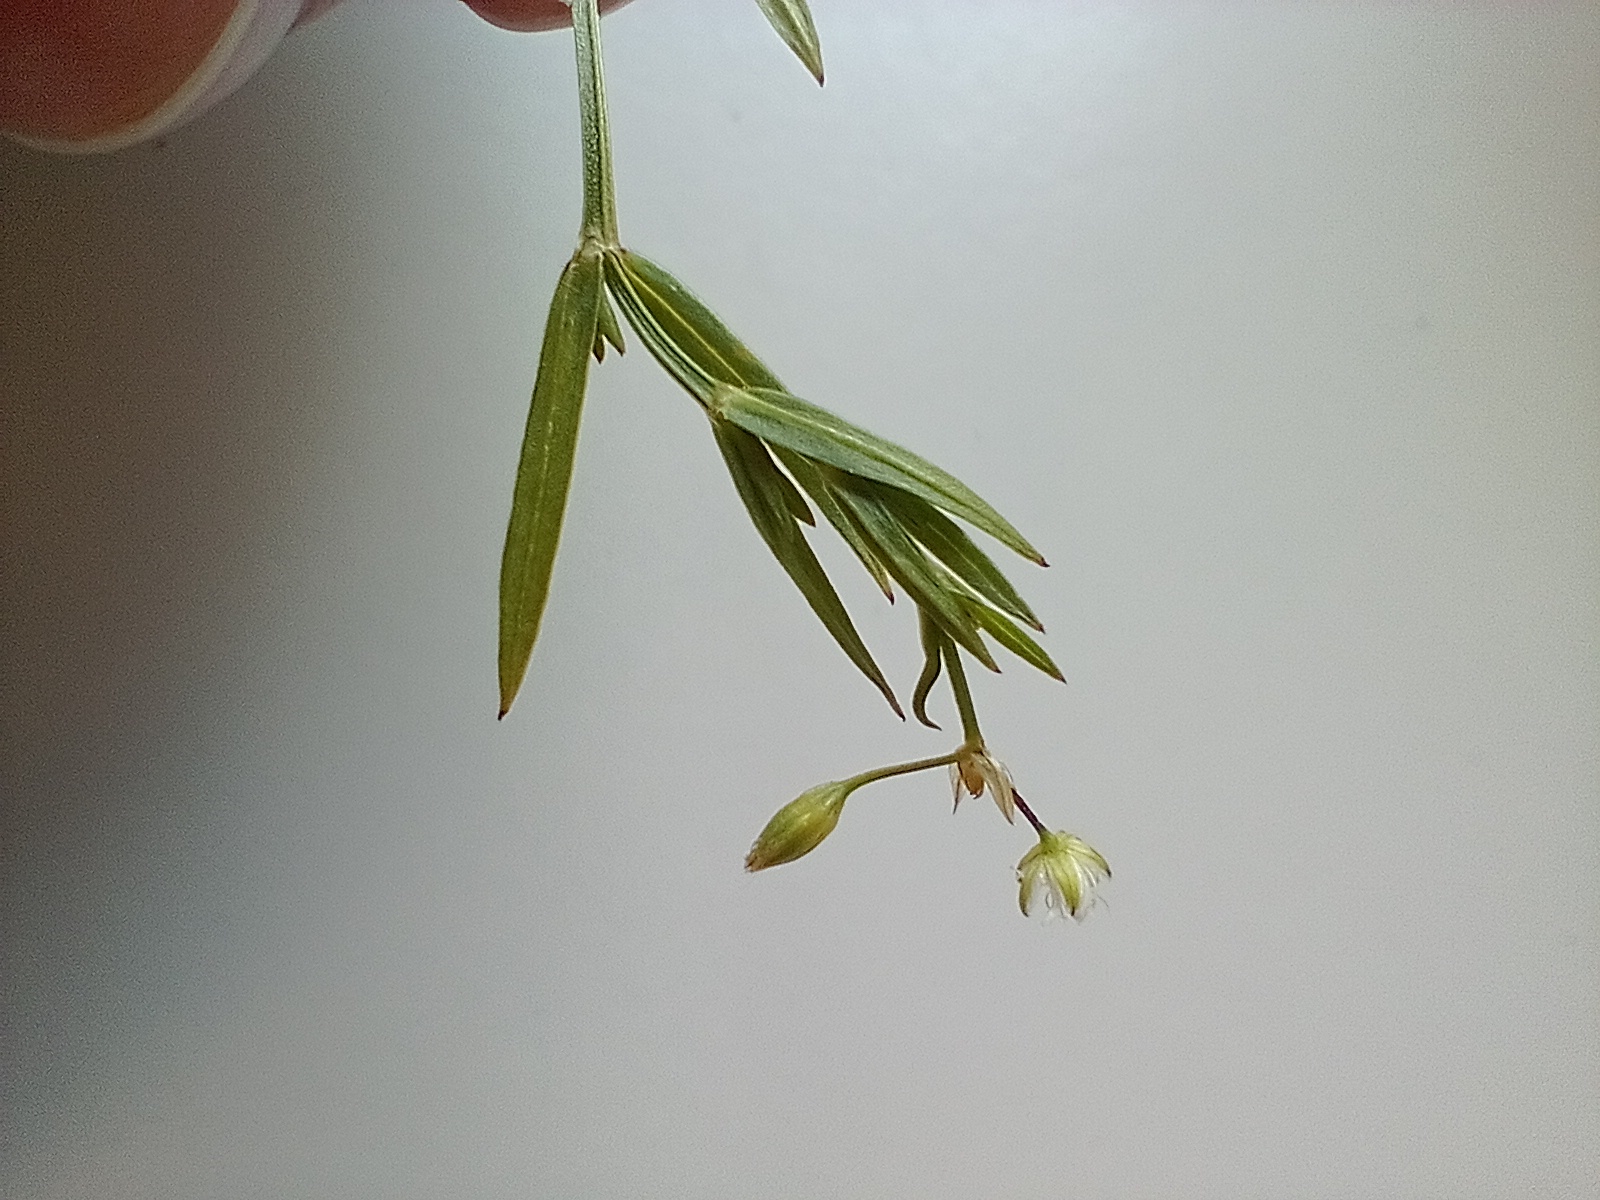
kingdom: Plantae
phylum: Tracheophyta
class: Magnoliopsida
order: Caryophyllales
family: Caryophyllaceae
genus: Stellaria
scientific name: Stellaria graminea
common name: Græsbladet fladstjerne
